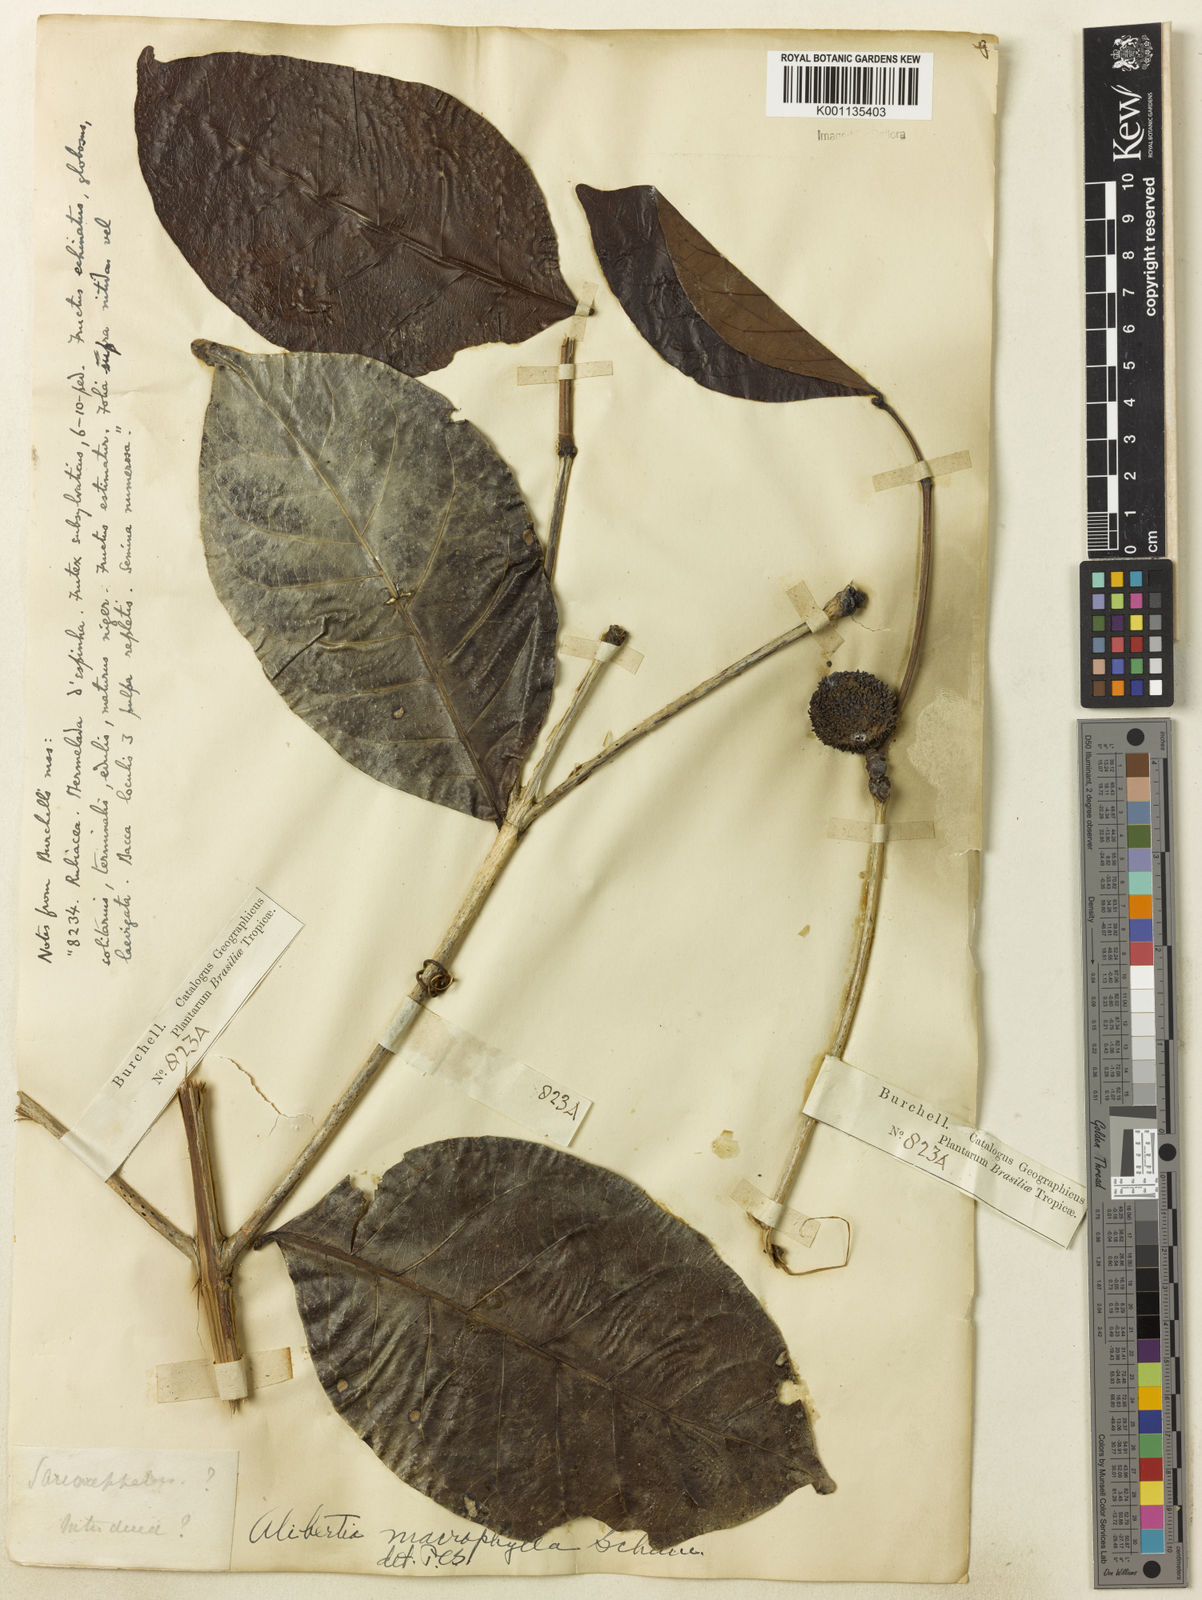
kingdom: Plantae
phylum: Tracheophyta
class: Magnoliopsida
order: Gentianales
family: Rubiaceae
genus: Cordiera
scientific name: Cordiera macrophylla
